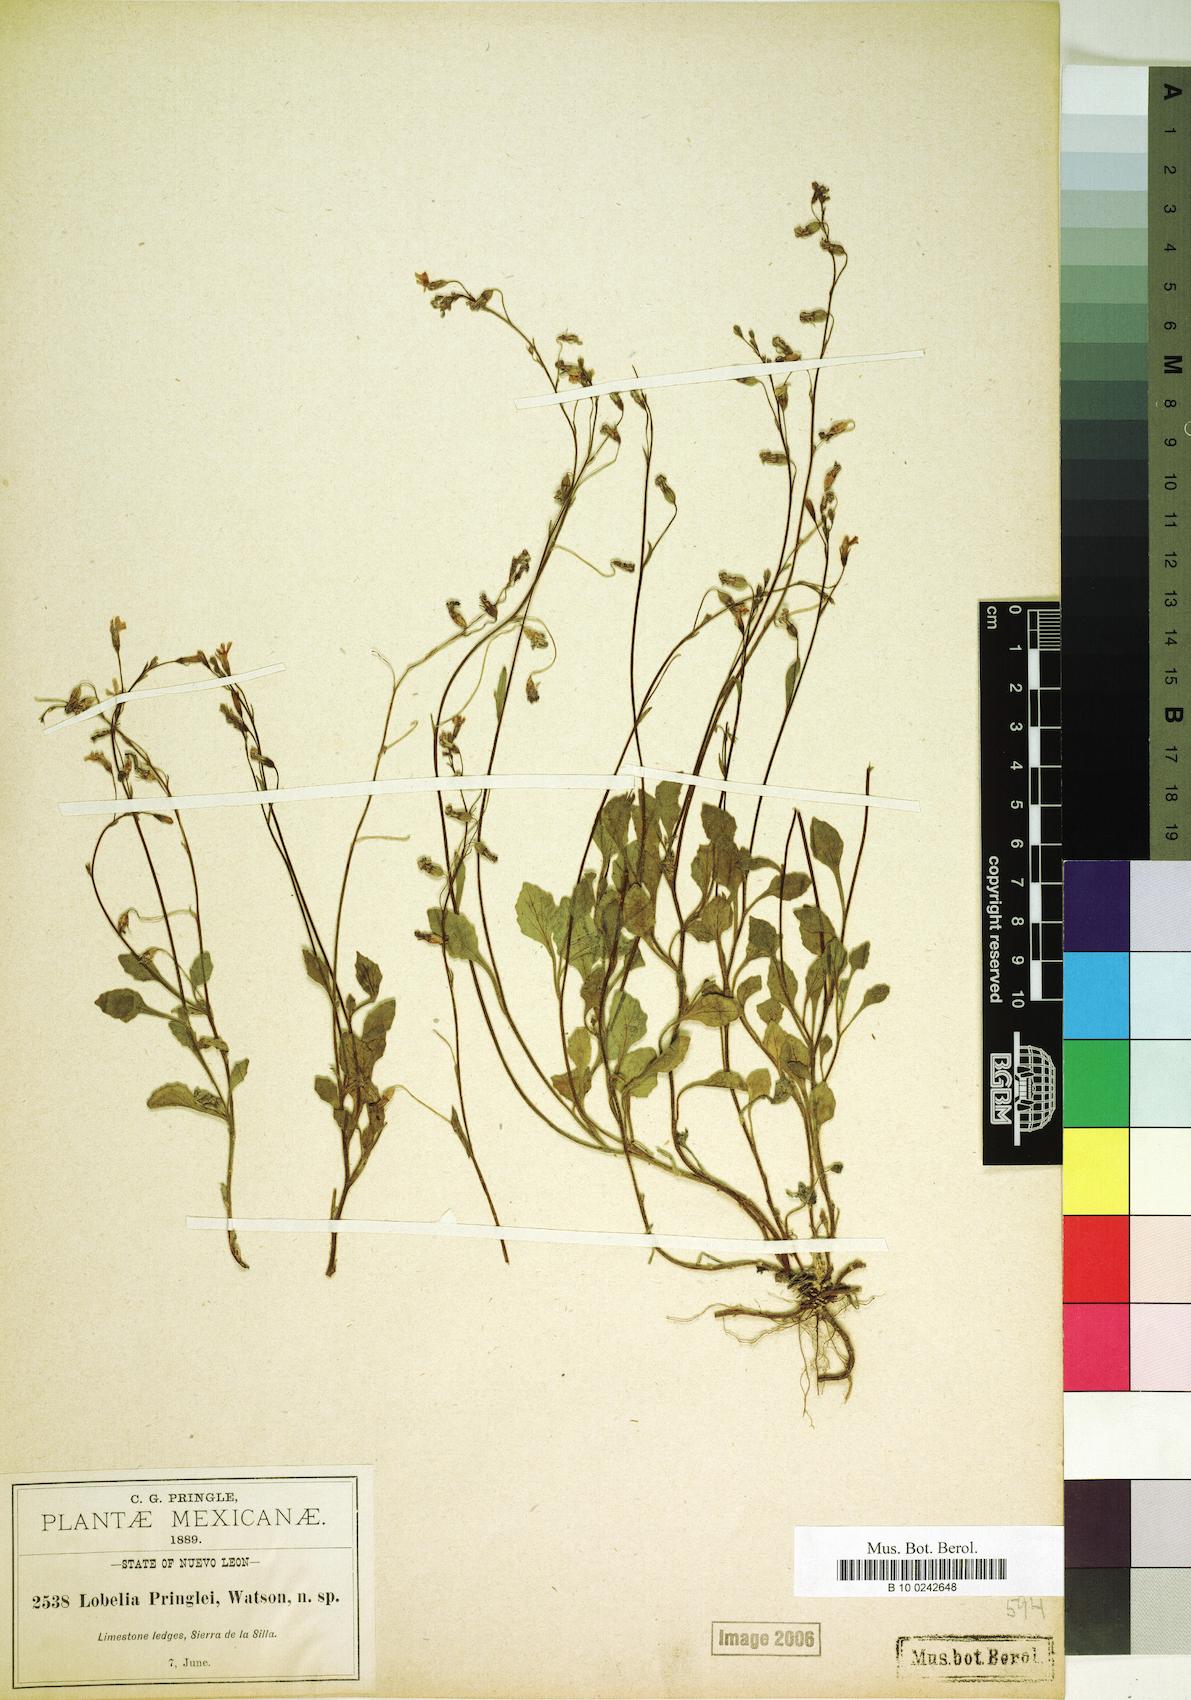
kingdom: Plantae
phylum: Tracheophyta
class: Magnoliopsida
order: Asterales
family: Campanulaceae
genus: Lobelia
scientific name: Lobelia pringlei
